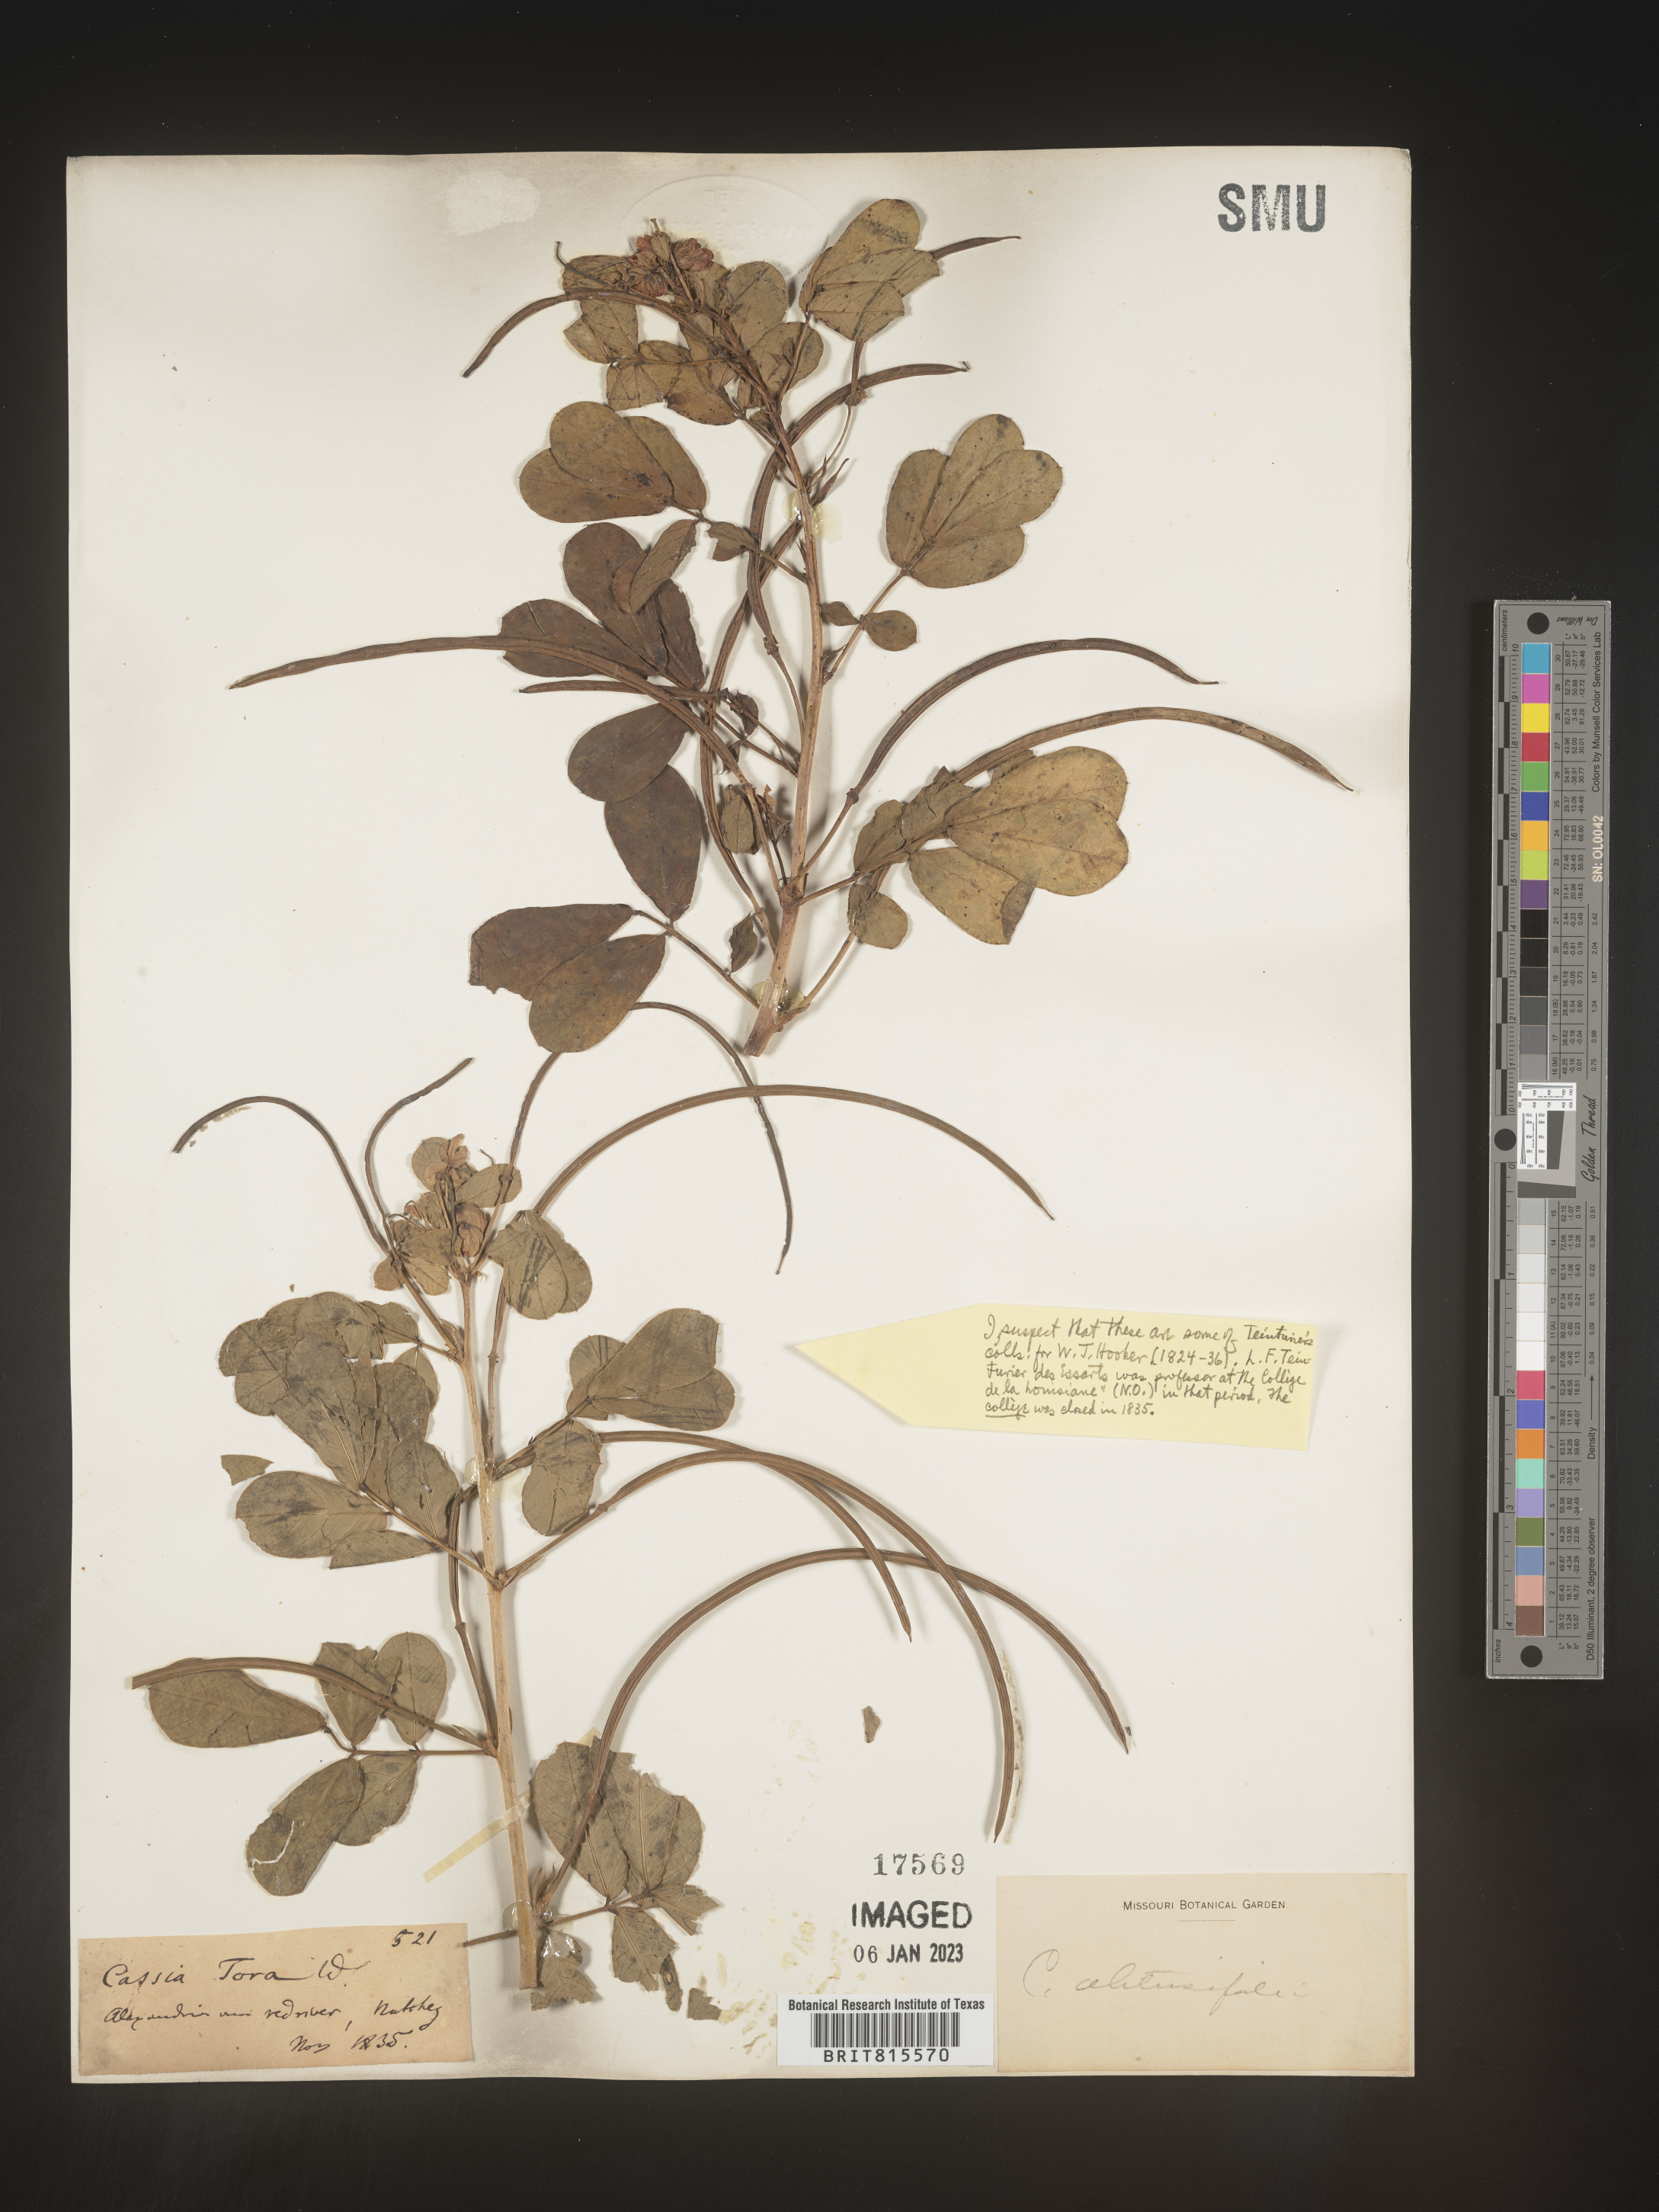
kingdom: Plantae
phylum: Tracheophyta
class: Magnoliopsida
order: Fabales
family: Fabaceae
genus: Senna
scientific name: Senna tora
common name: Sickle senna
